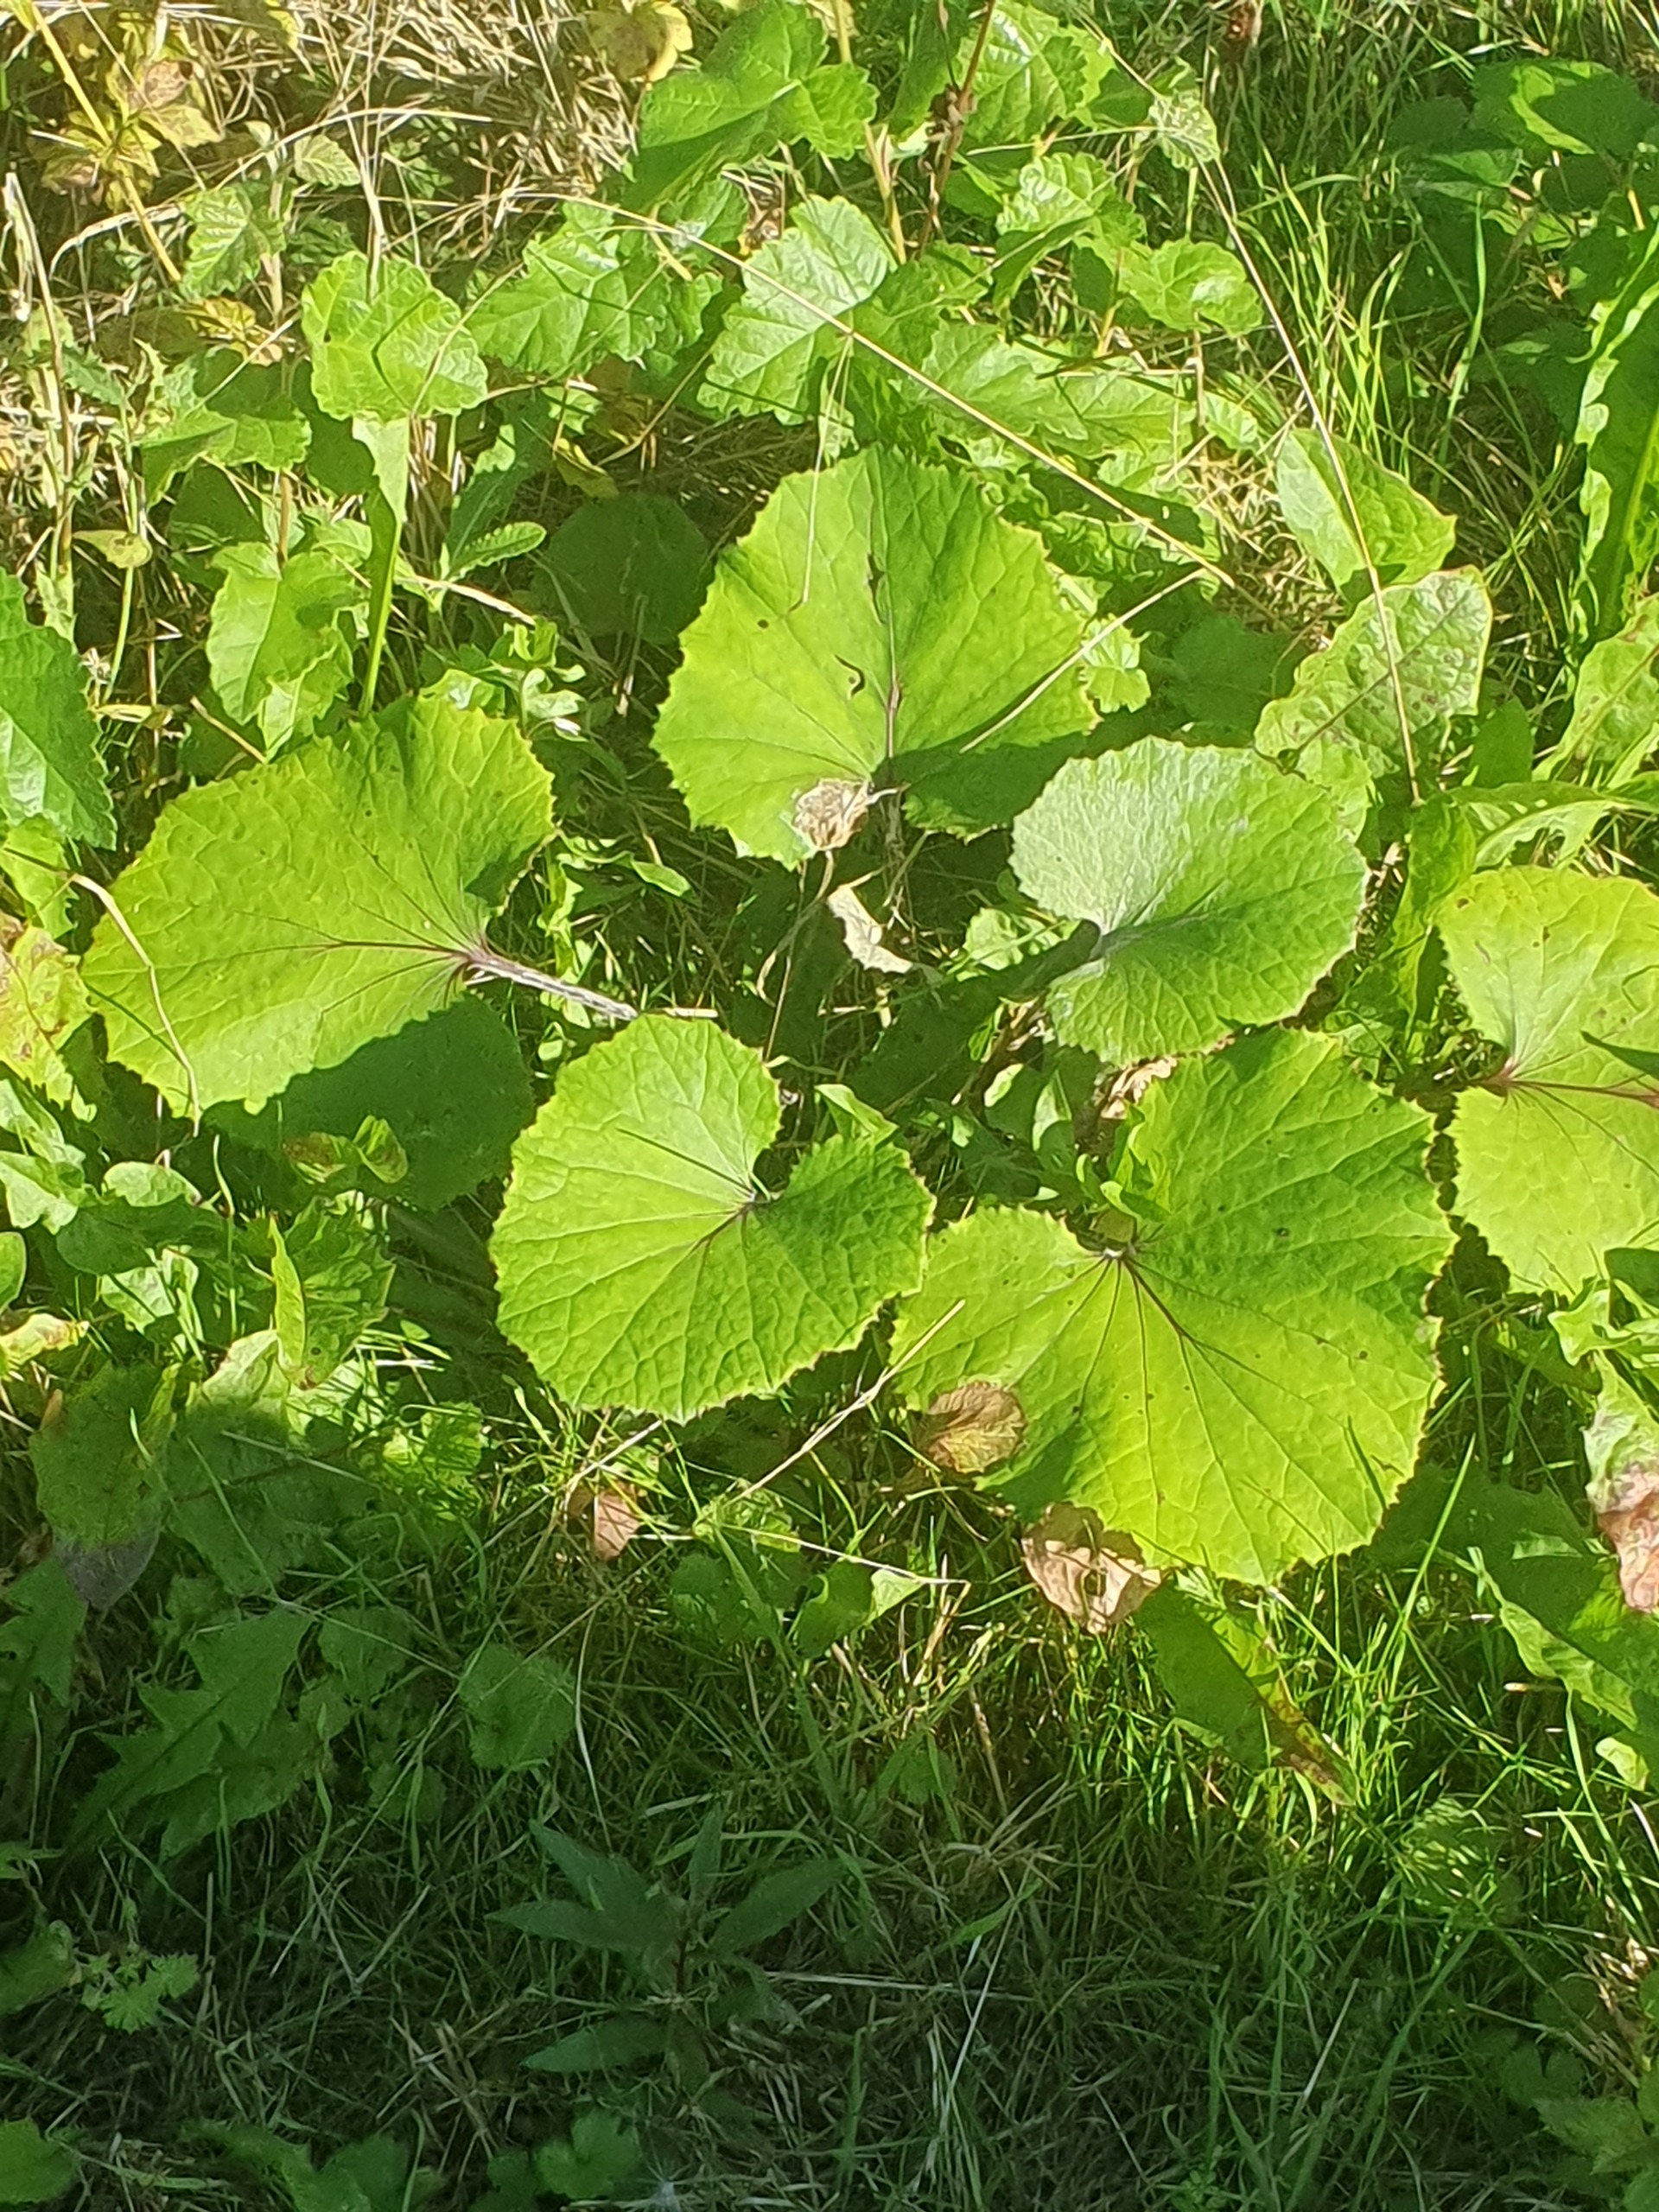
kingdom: Plantae
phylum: Tracheophyta
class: Magnoliopsida
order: Asterales
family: Asteraceae
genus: Tussilago
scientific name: Tussilago farfara
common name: Følfod
